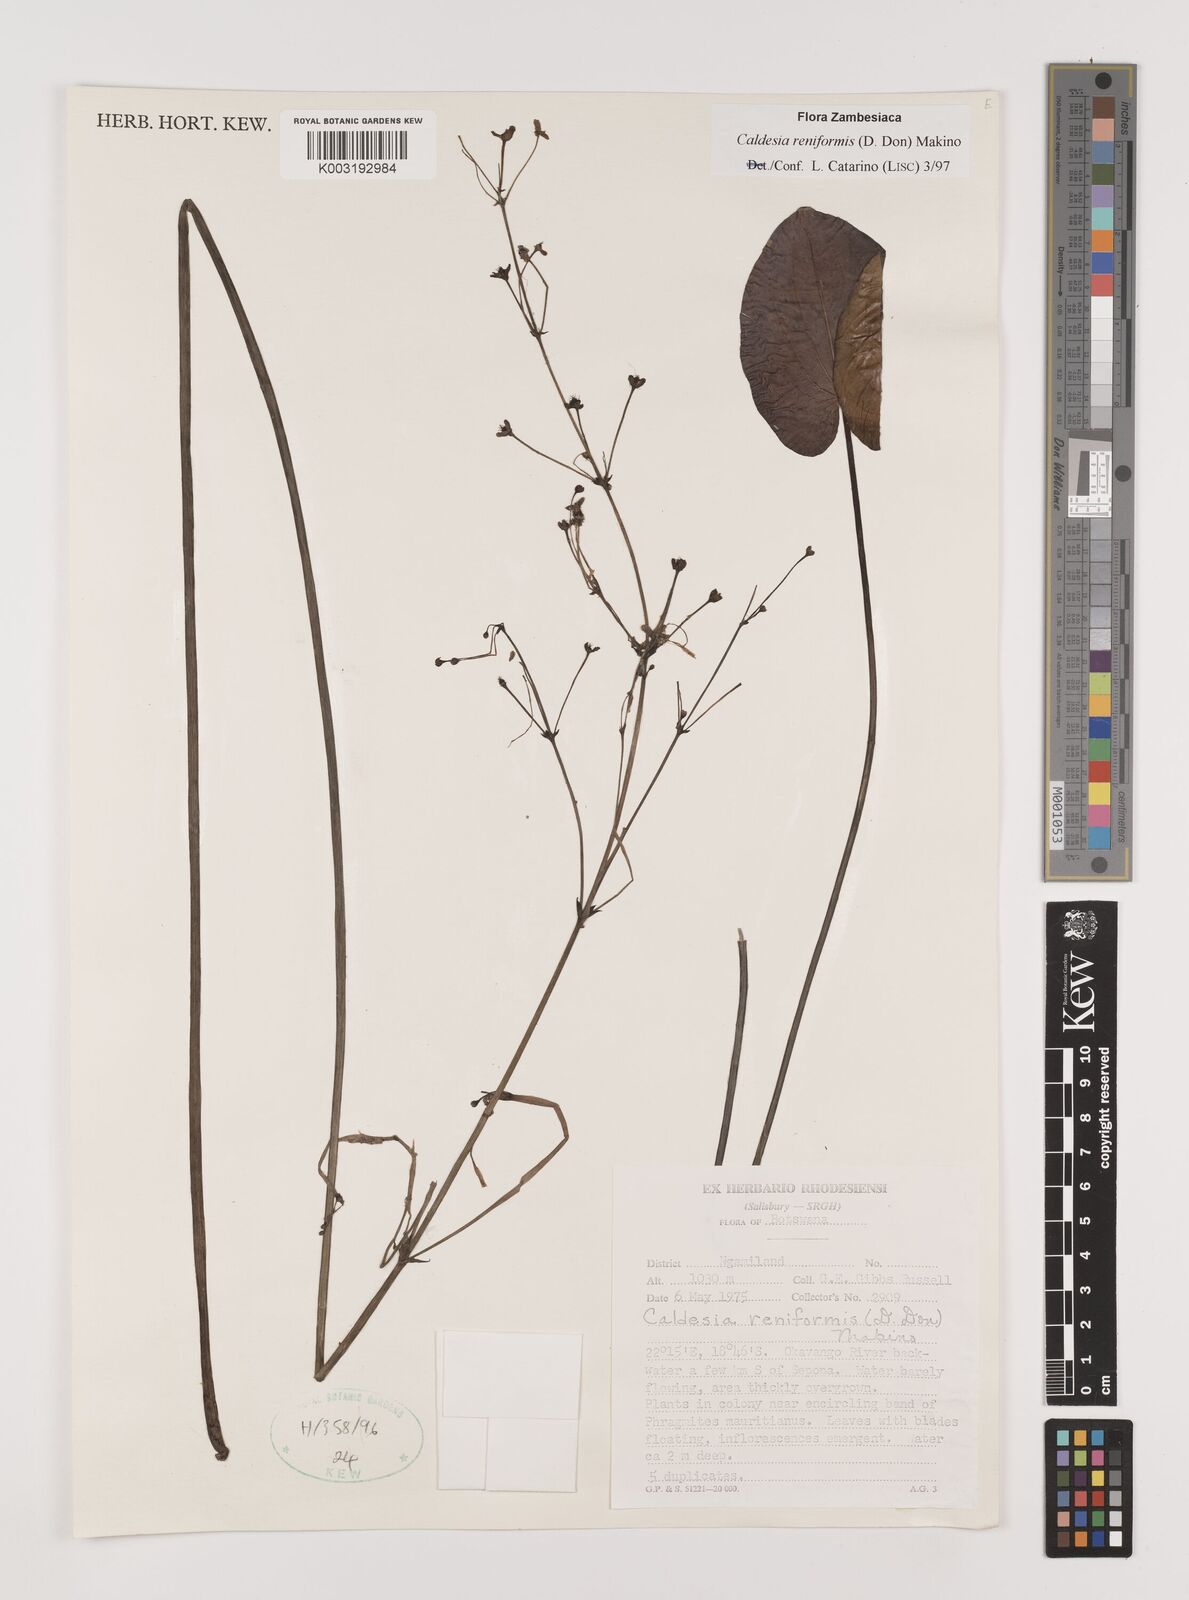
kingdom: Plantae
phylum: Tracheophyta
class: Liliopsida
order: Alismatales
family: Alismataceae
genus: Caldesia
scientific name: Caldesia parnassifolia
